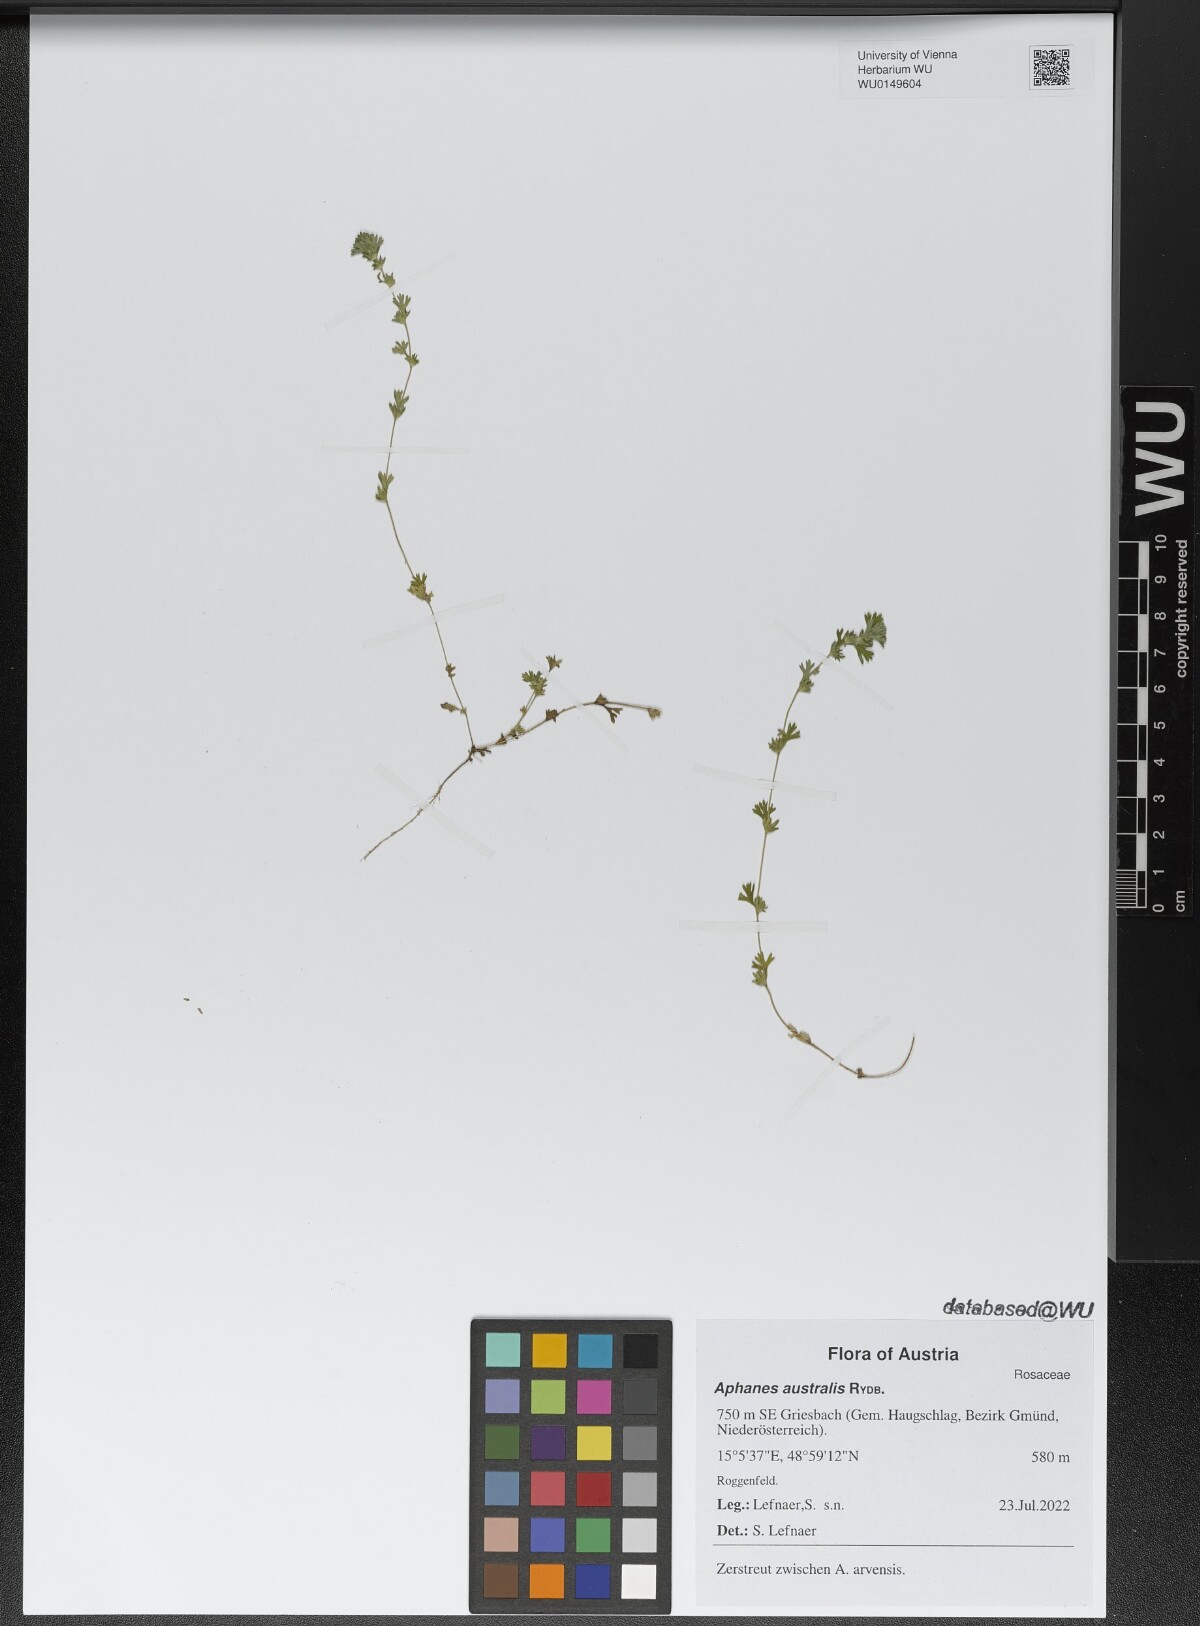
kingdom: Plantae
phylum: Tracheophyta
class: Magnoliopsida
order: Rosales
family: Rosaceae
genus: Aphanes
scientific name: Aphanes australis
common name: Slender parsley-piert
